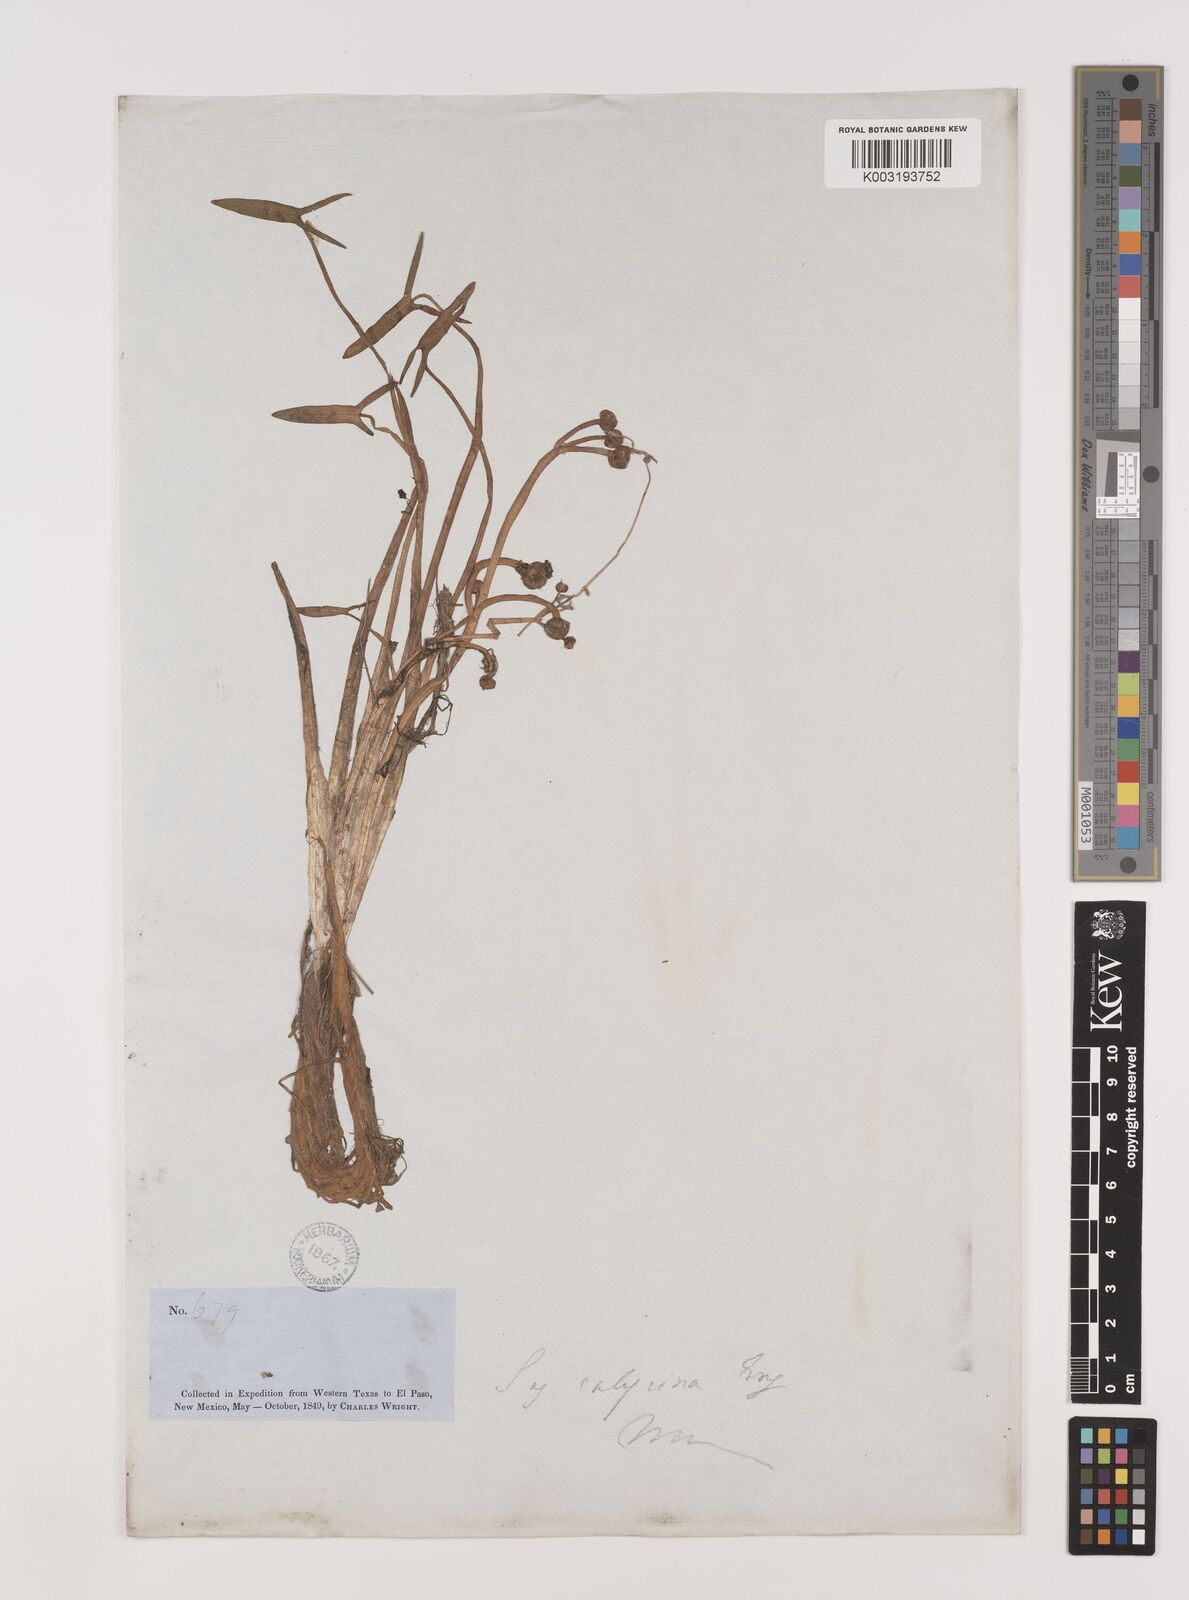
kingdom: Plantae
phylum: Tracheophyta
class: Liliopsida
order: Alismatales
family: Alismataceae
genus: Sagittaria
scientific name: Sagittaria montevidensis
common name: Giant arrowhead
